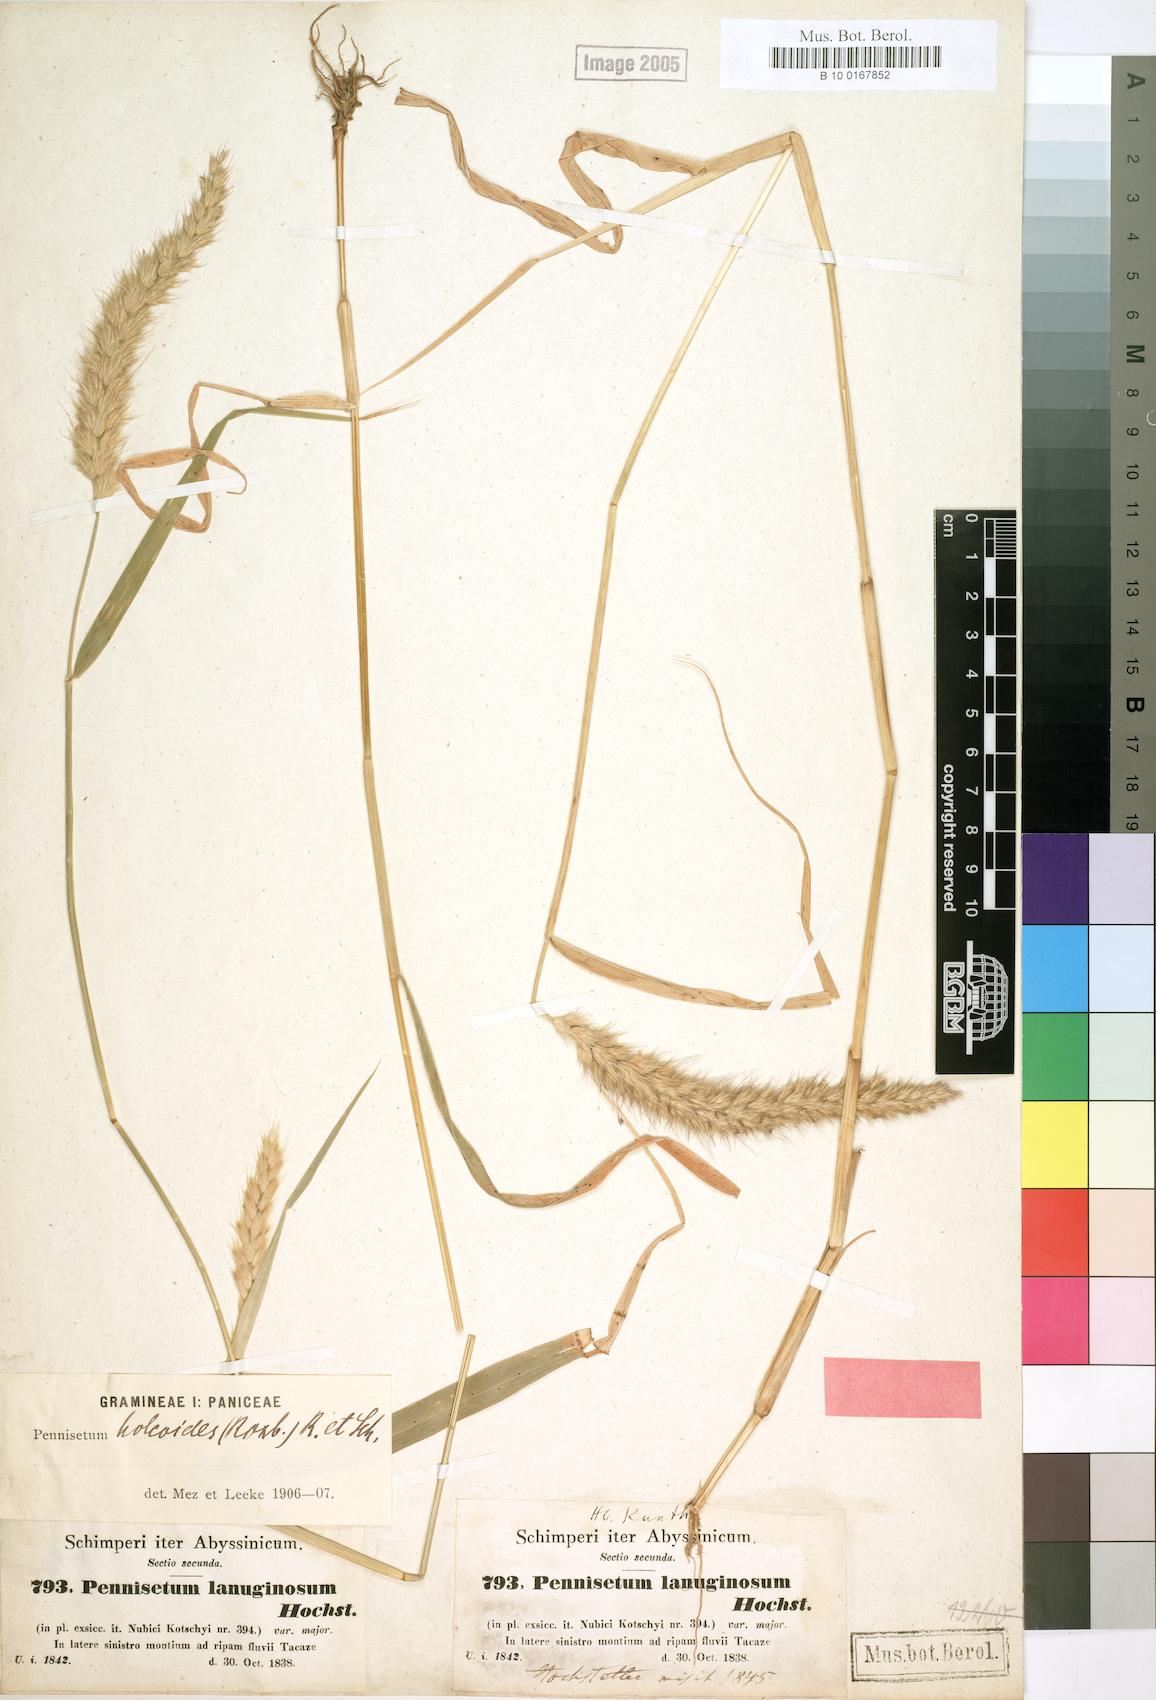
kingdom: Plantae
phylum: Tracheophyta
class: Liliopsida
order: Poales
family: Poaceae
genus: Cenchrus
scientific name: Cenchrus pedicellatus
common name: Hairy fountain grass
